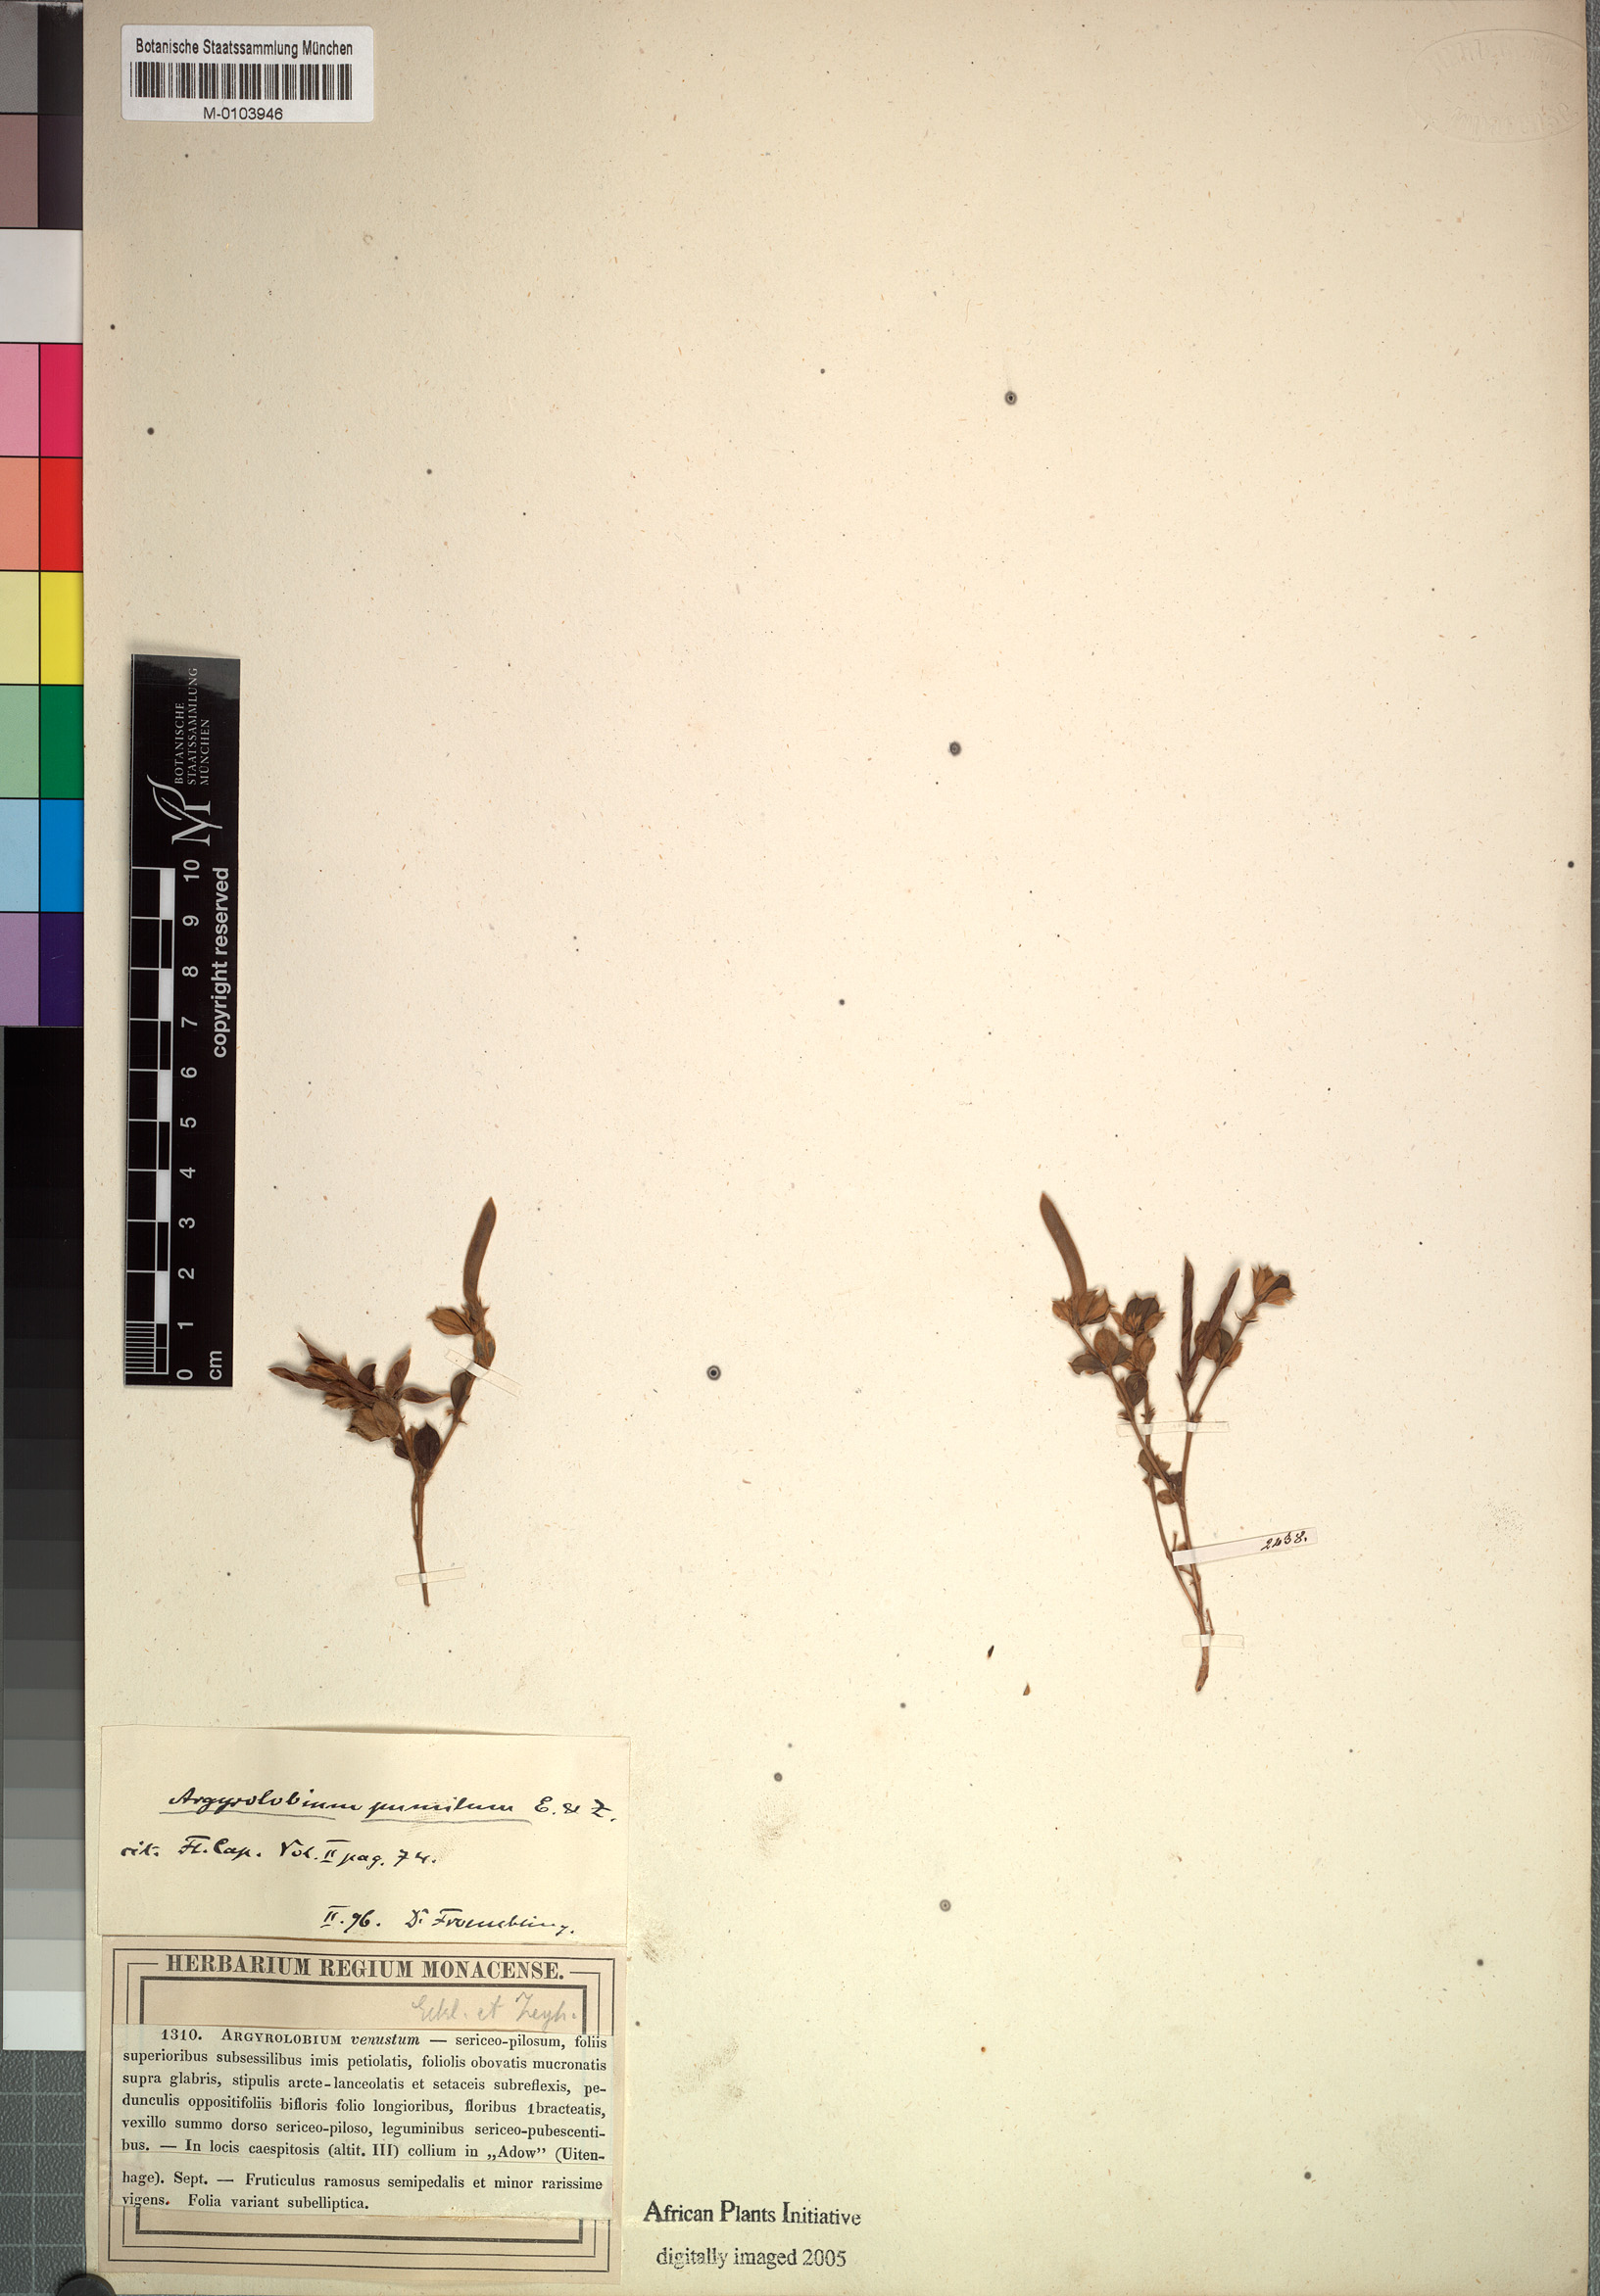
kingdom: Plantae
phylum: Tracheophyta
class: Magnoliopsida
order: Fabales
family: Fabaceae
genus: Argyrolobium
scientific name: Argyrolobium pumilum
